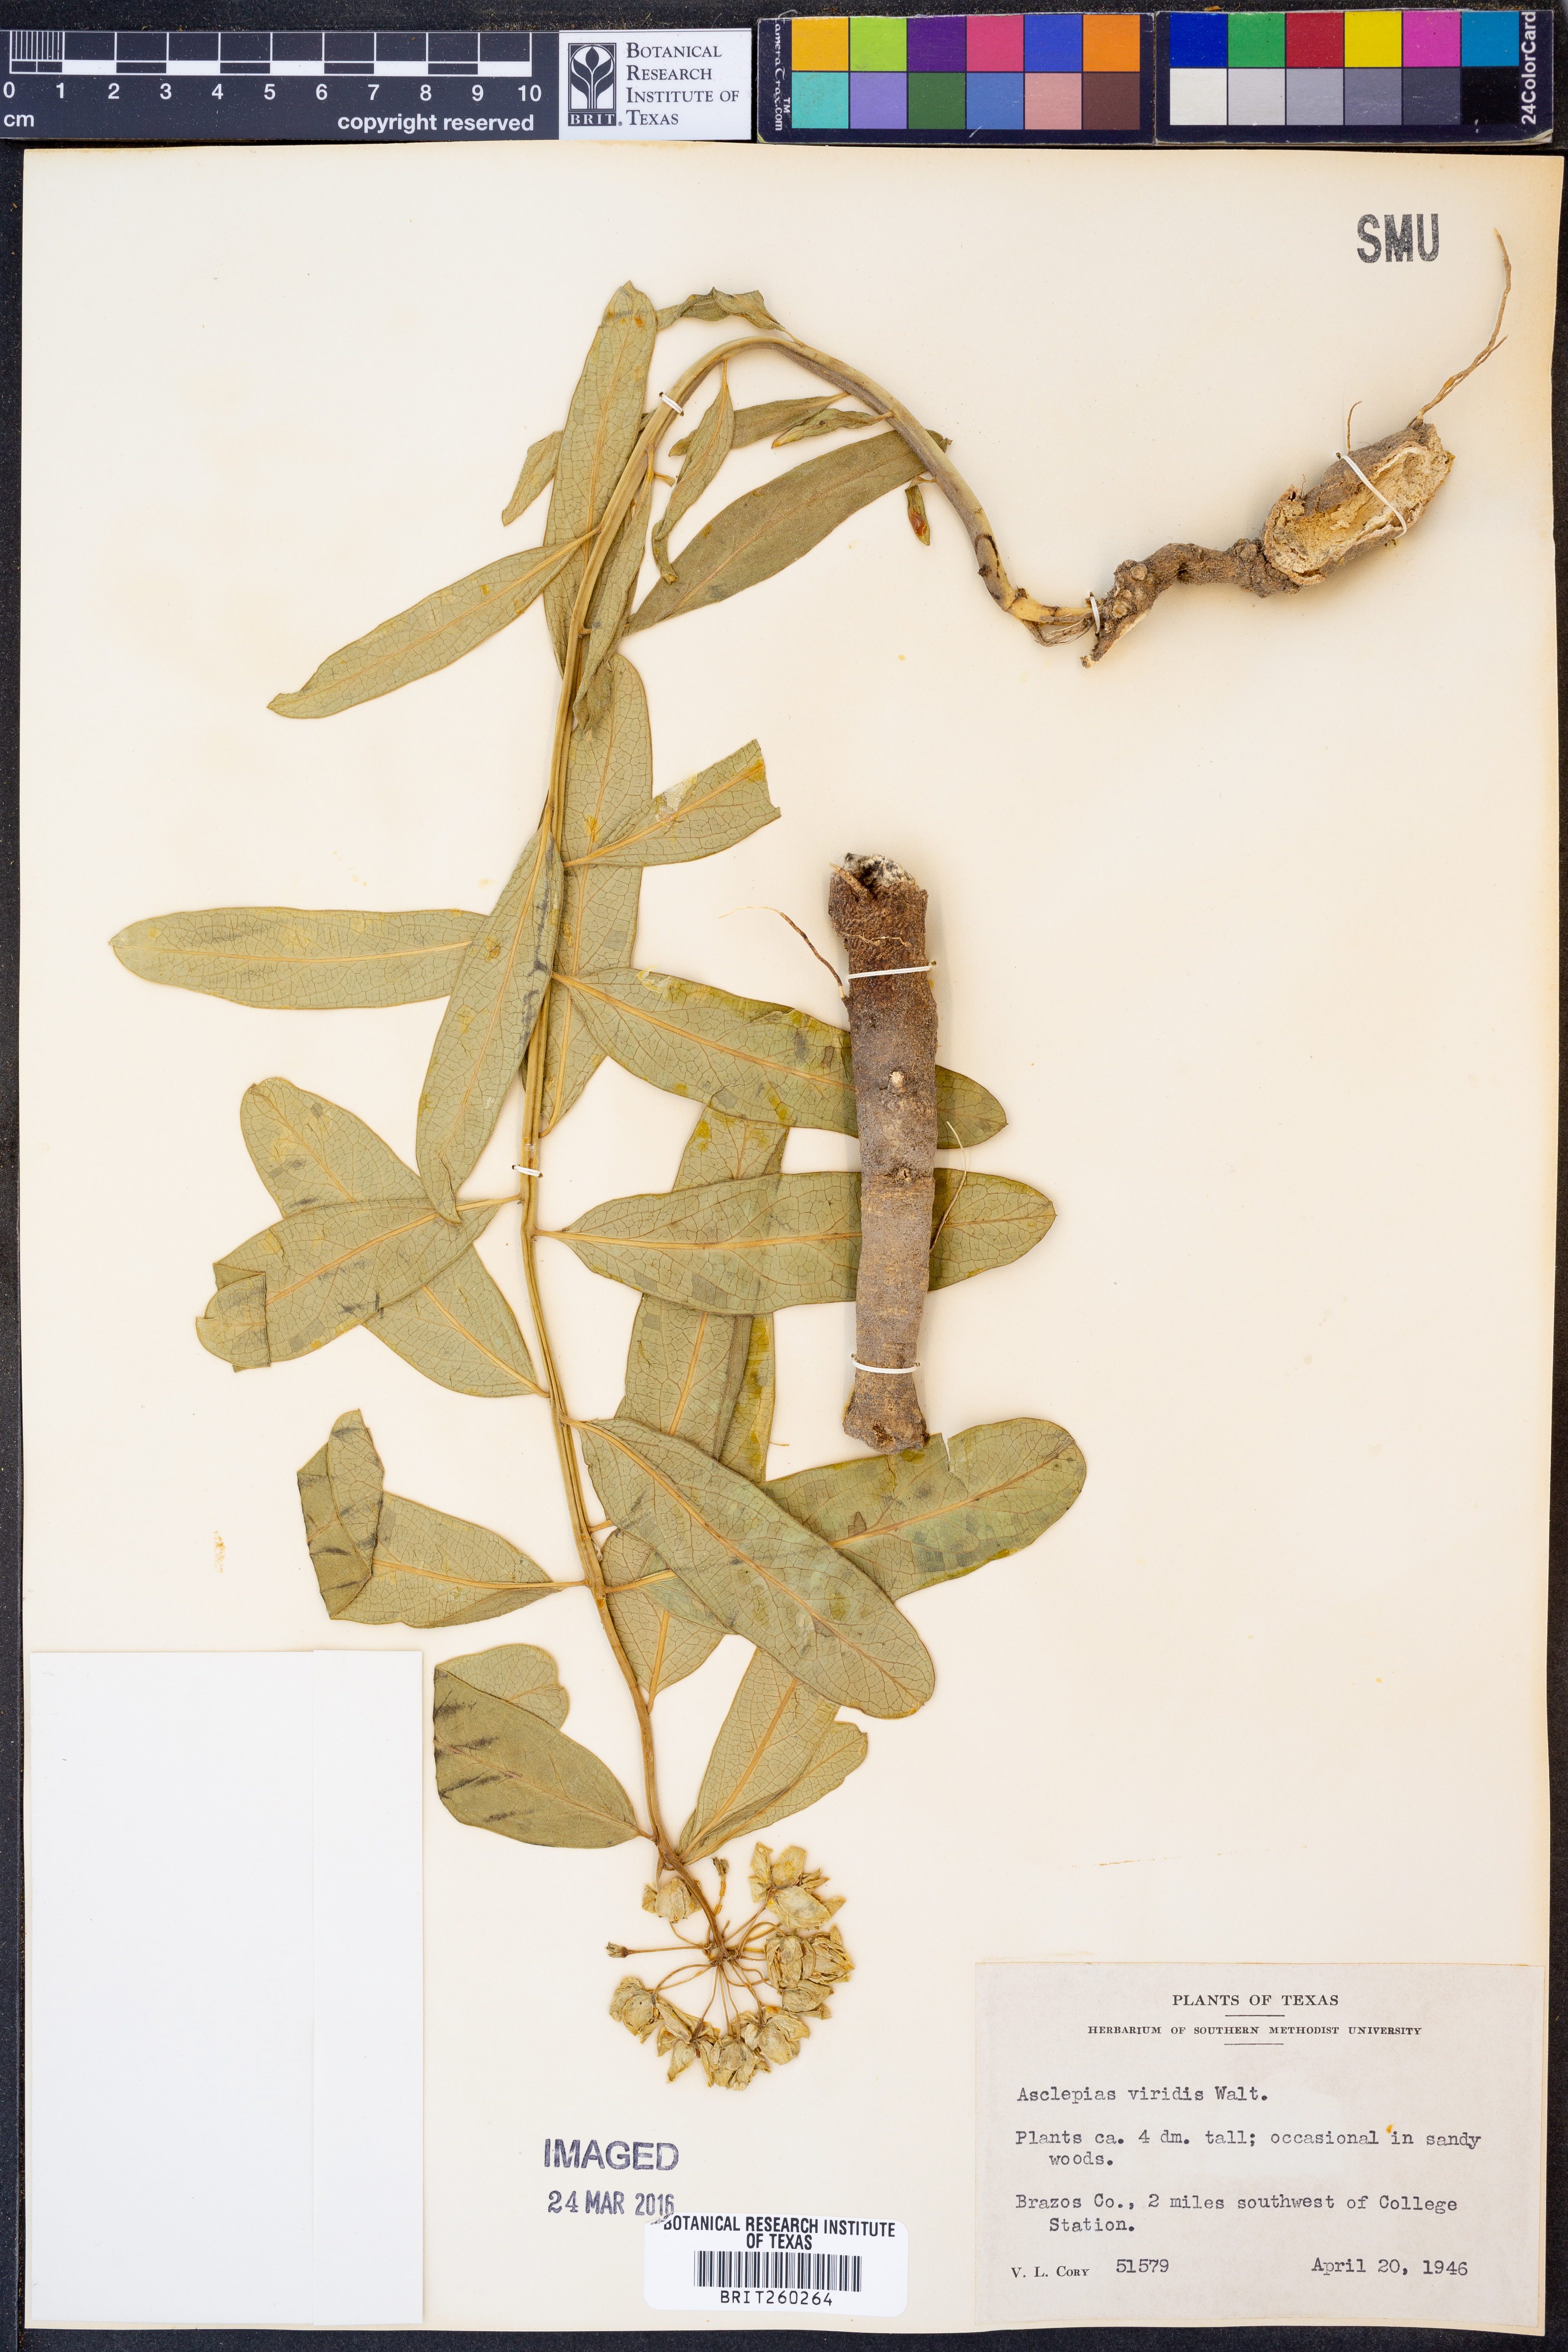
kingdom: Plantae
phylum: Tracheophyta
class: Magnoliopsida
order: Gentianales
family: Apocynaceae
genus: Asclepias
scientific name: Asclepias viridis
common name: Antelope-horns
